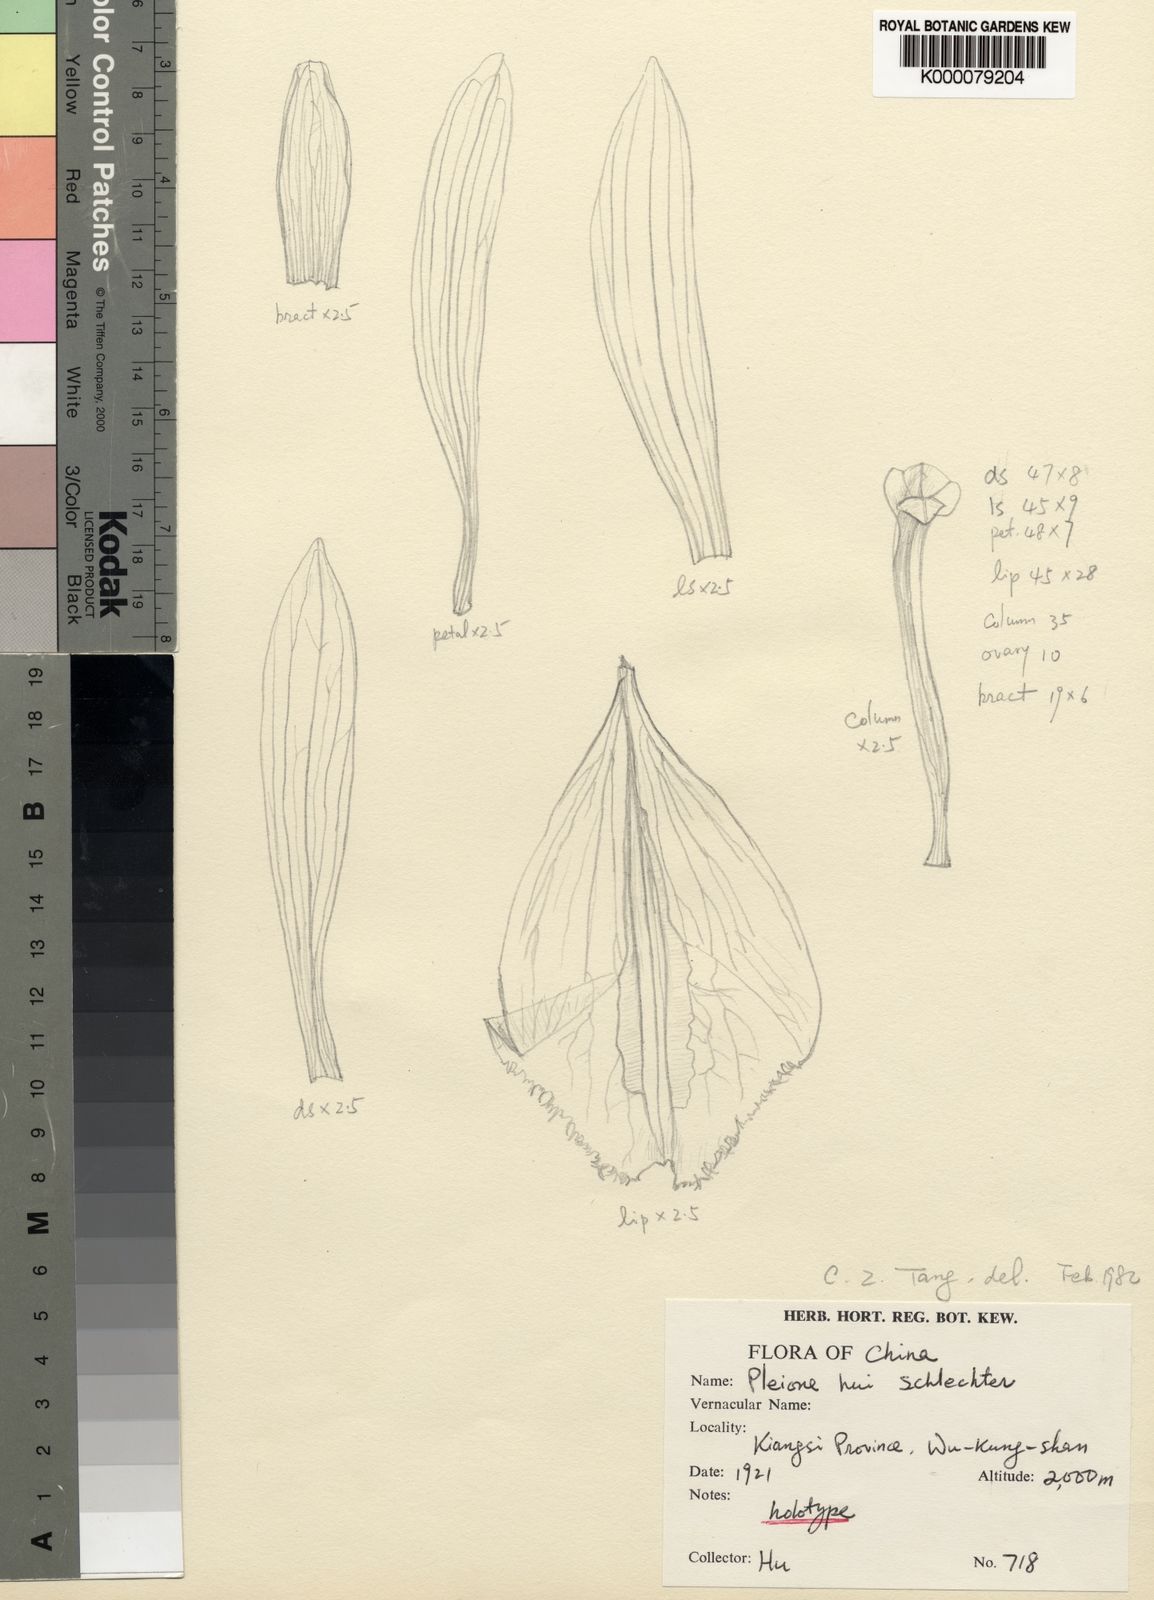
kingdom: Plantae
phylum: Tracheophyta
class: Liliopsida
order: Asparagales
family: Orchidaceae
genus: Pleione
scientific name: Pleione formosana
